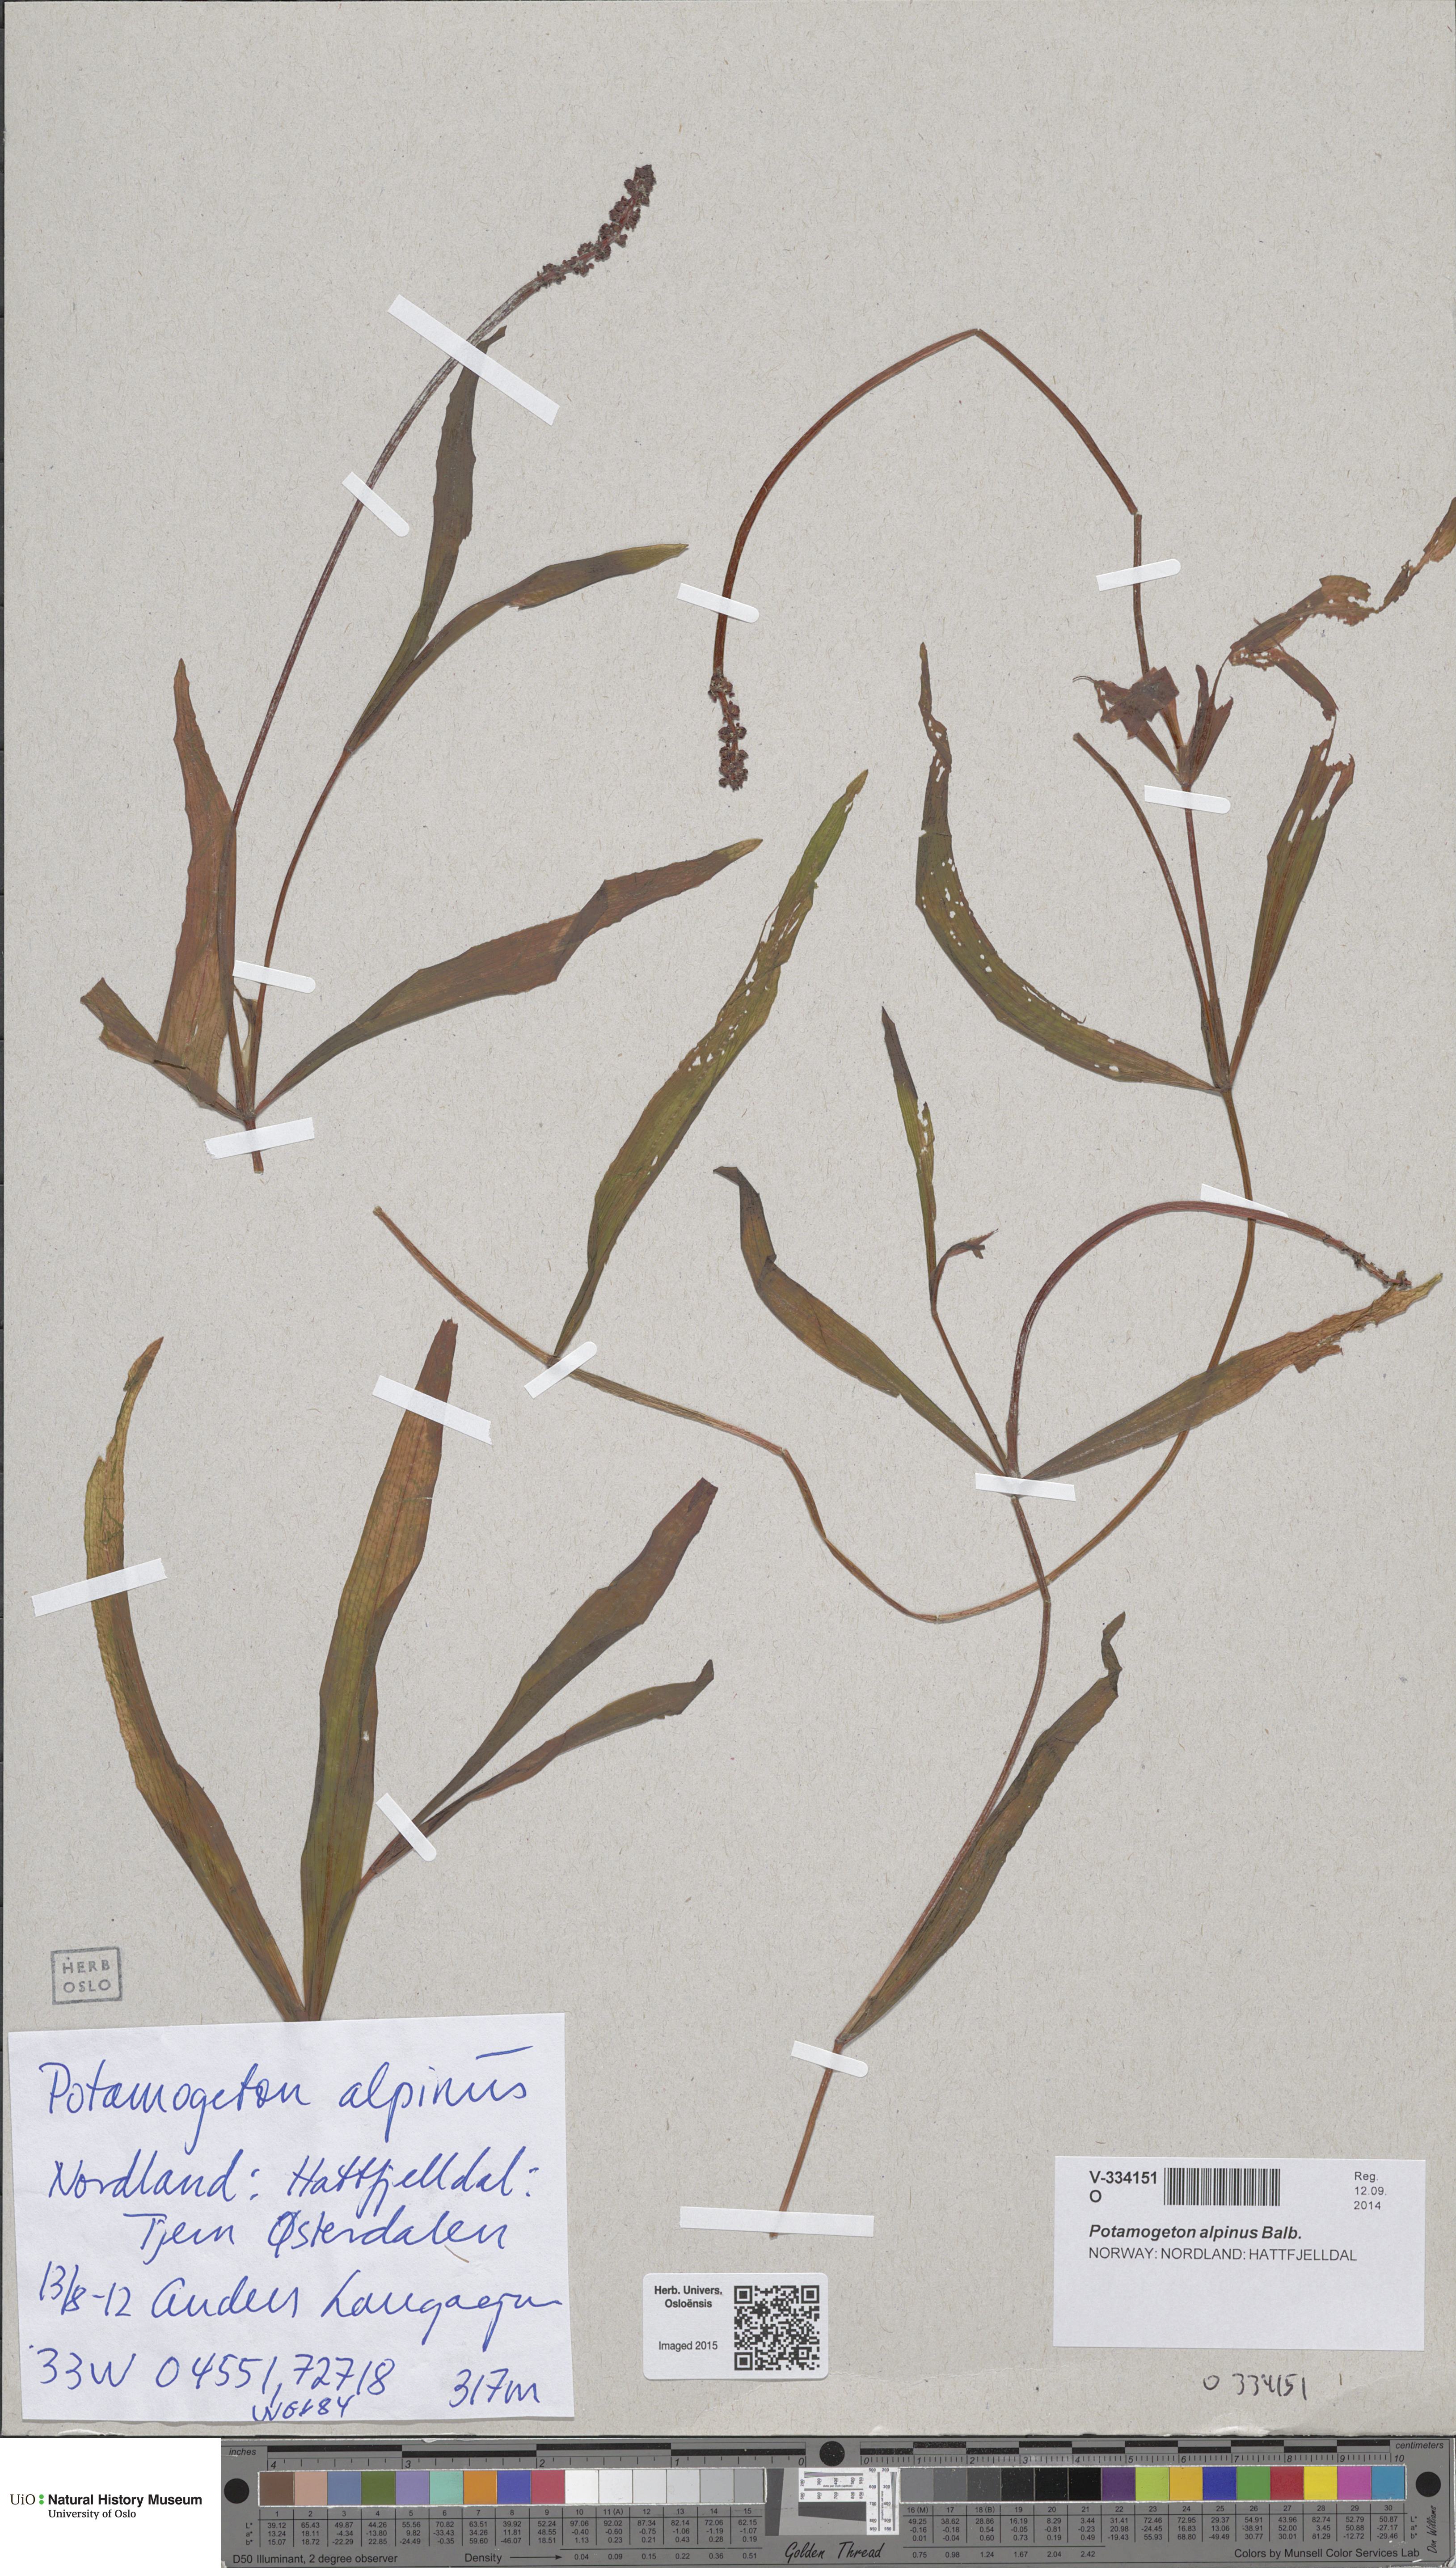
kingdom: Plantae
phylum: Tracheophyta
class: Liliopsida
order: Alismatales
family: Potamogetonaceae
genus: Potamogeton
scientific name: Potamogeton alpinus
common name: Red pondweed
